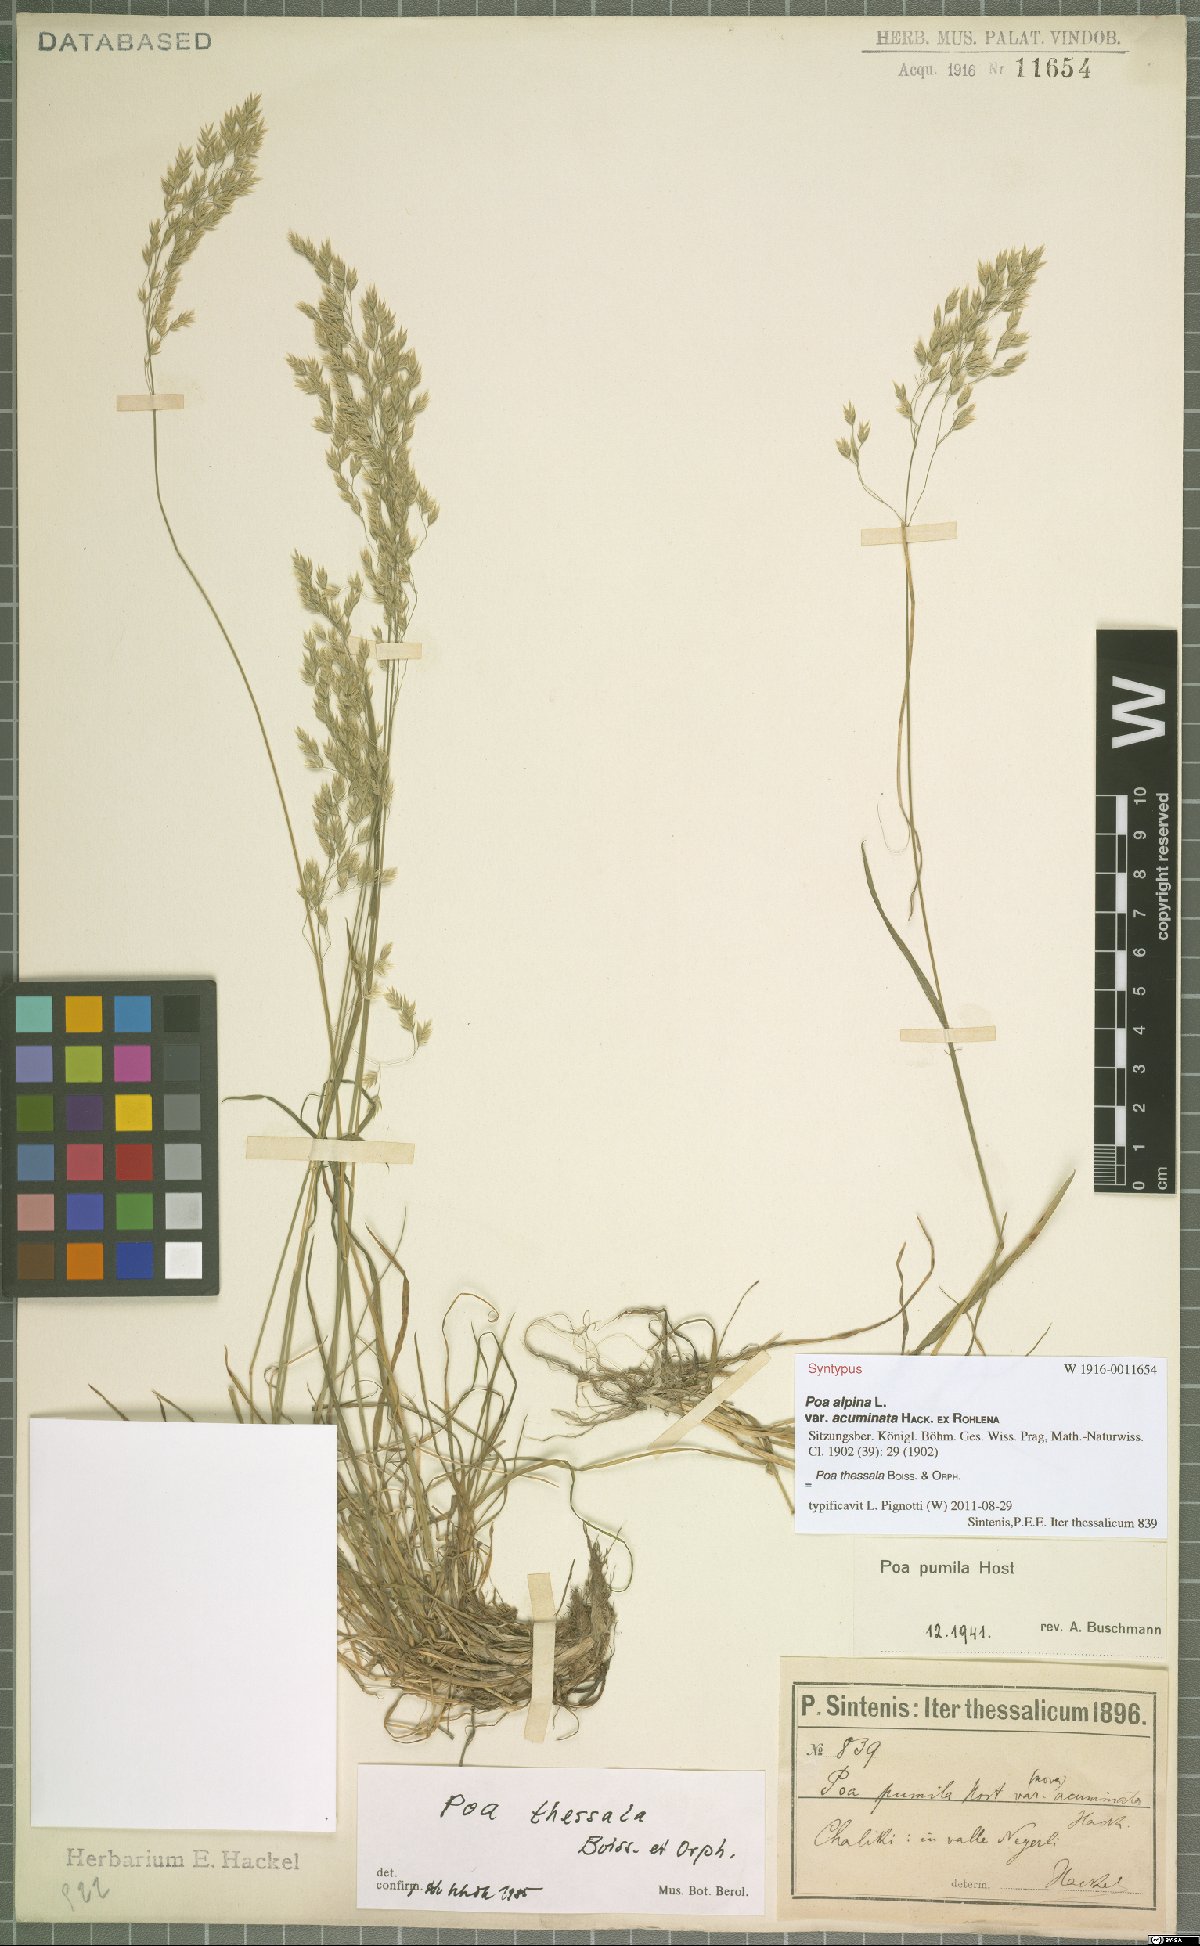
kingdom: Plantae
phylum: Tracheophyta
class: Liliopsida
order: Poales
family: Poaceae
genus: Poa
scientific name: Poa thessala
